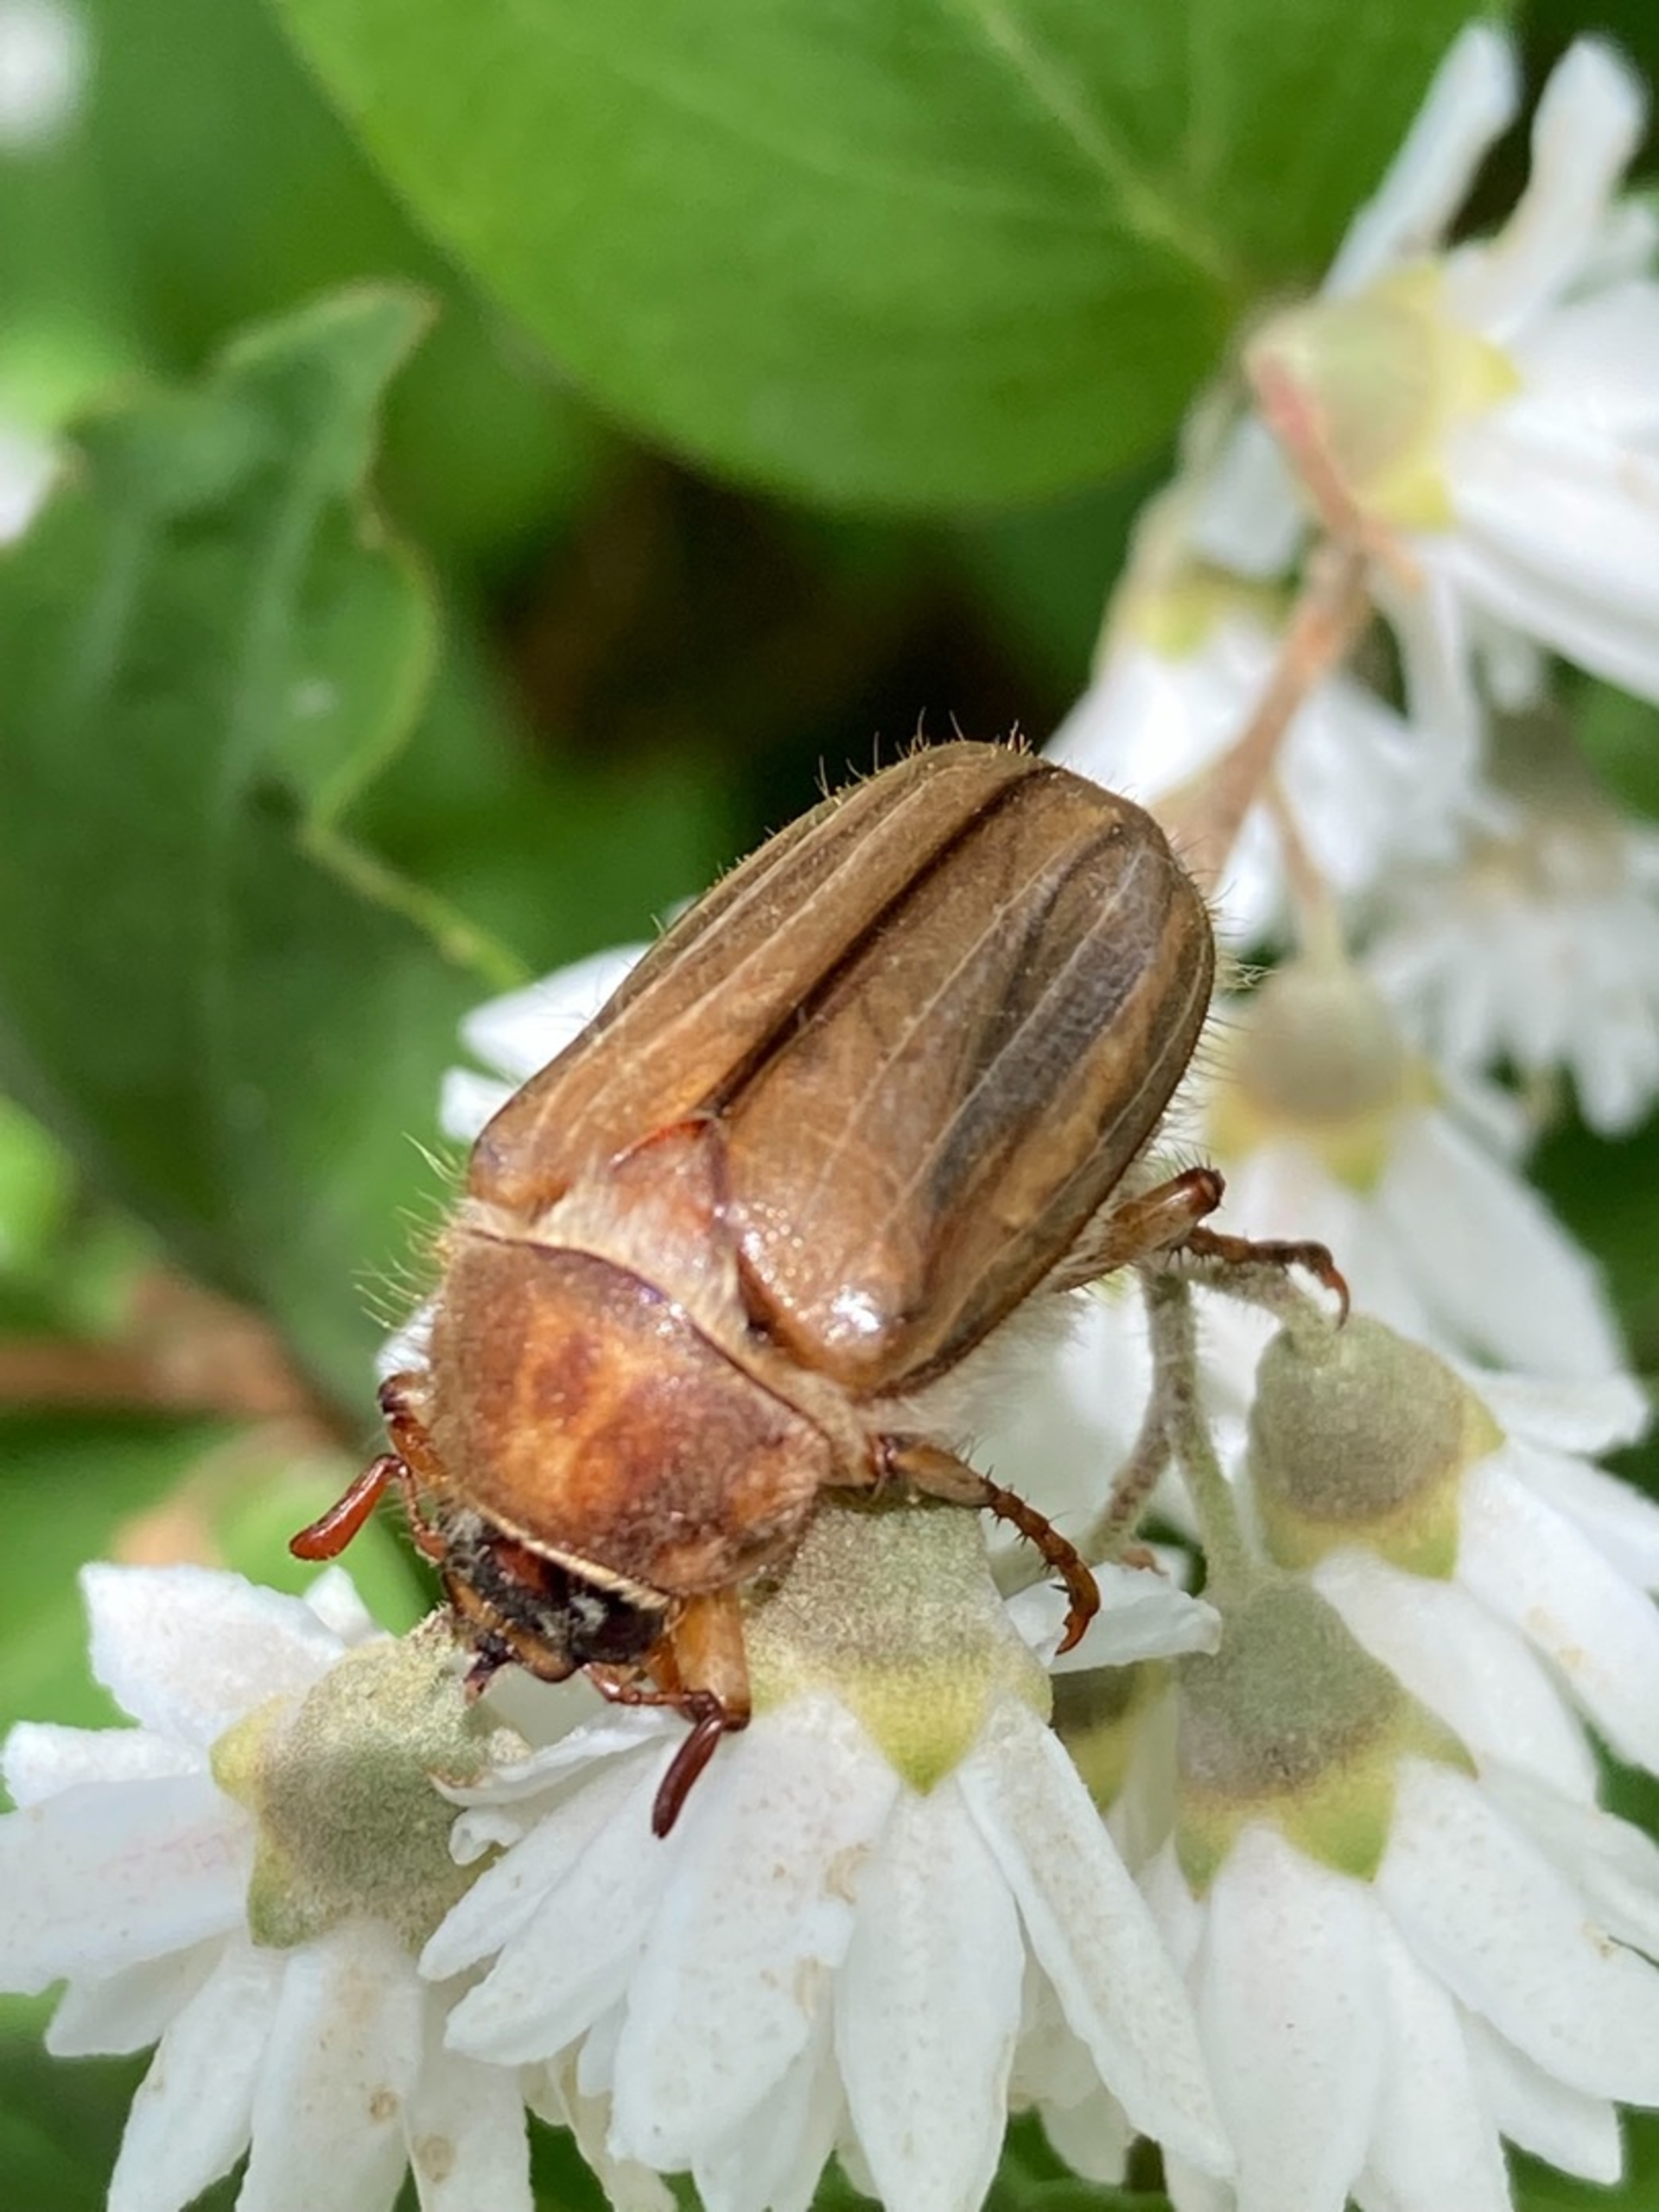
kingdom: Animalia
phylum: Arthropoda
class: Insecta
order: Coleoptera
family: Scarabaeidae
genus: Amphimallon
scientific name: Amphimallon solstitiale
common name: Sankthansoldenborre
